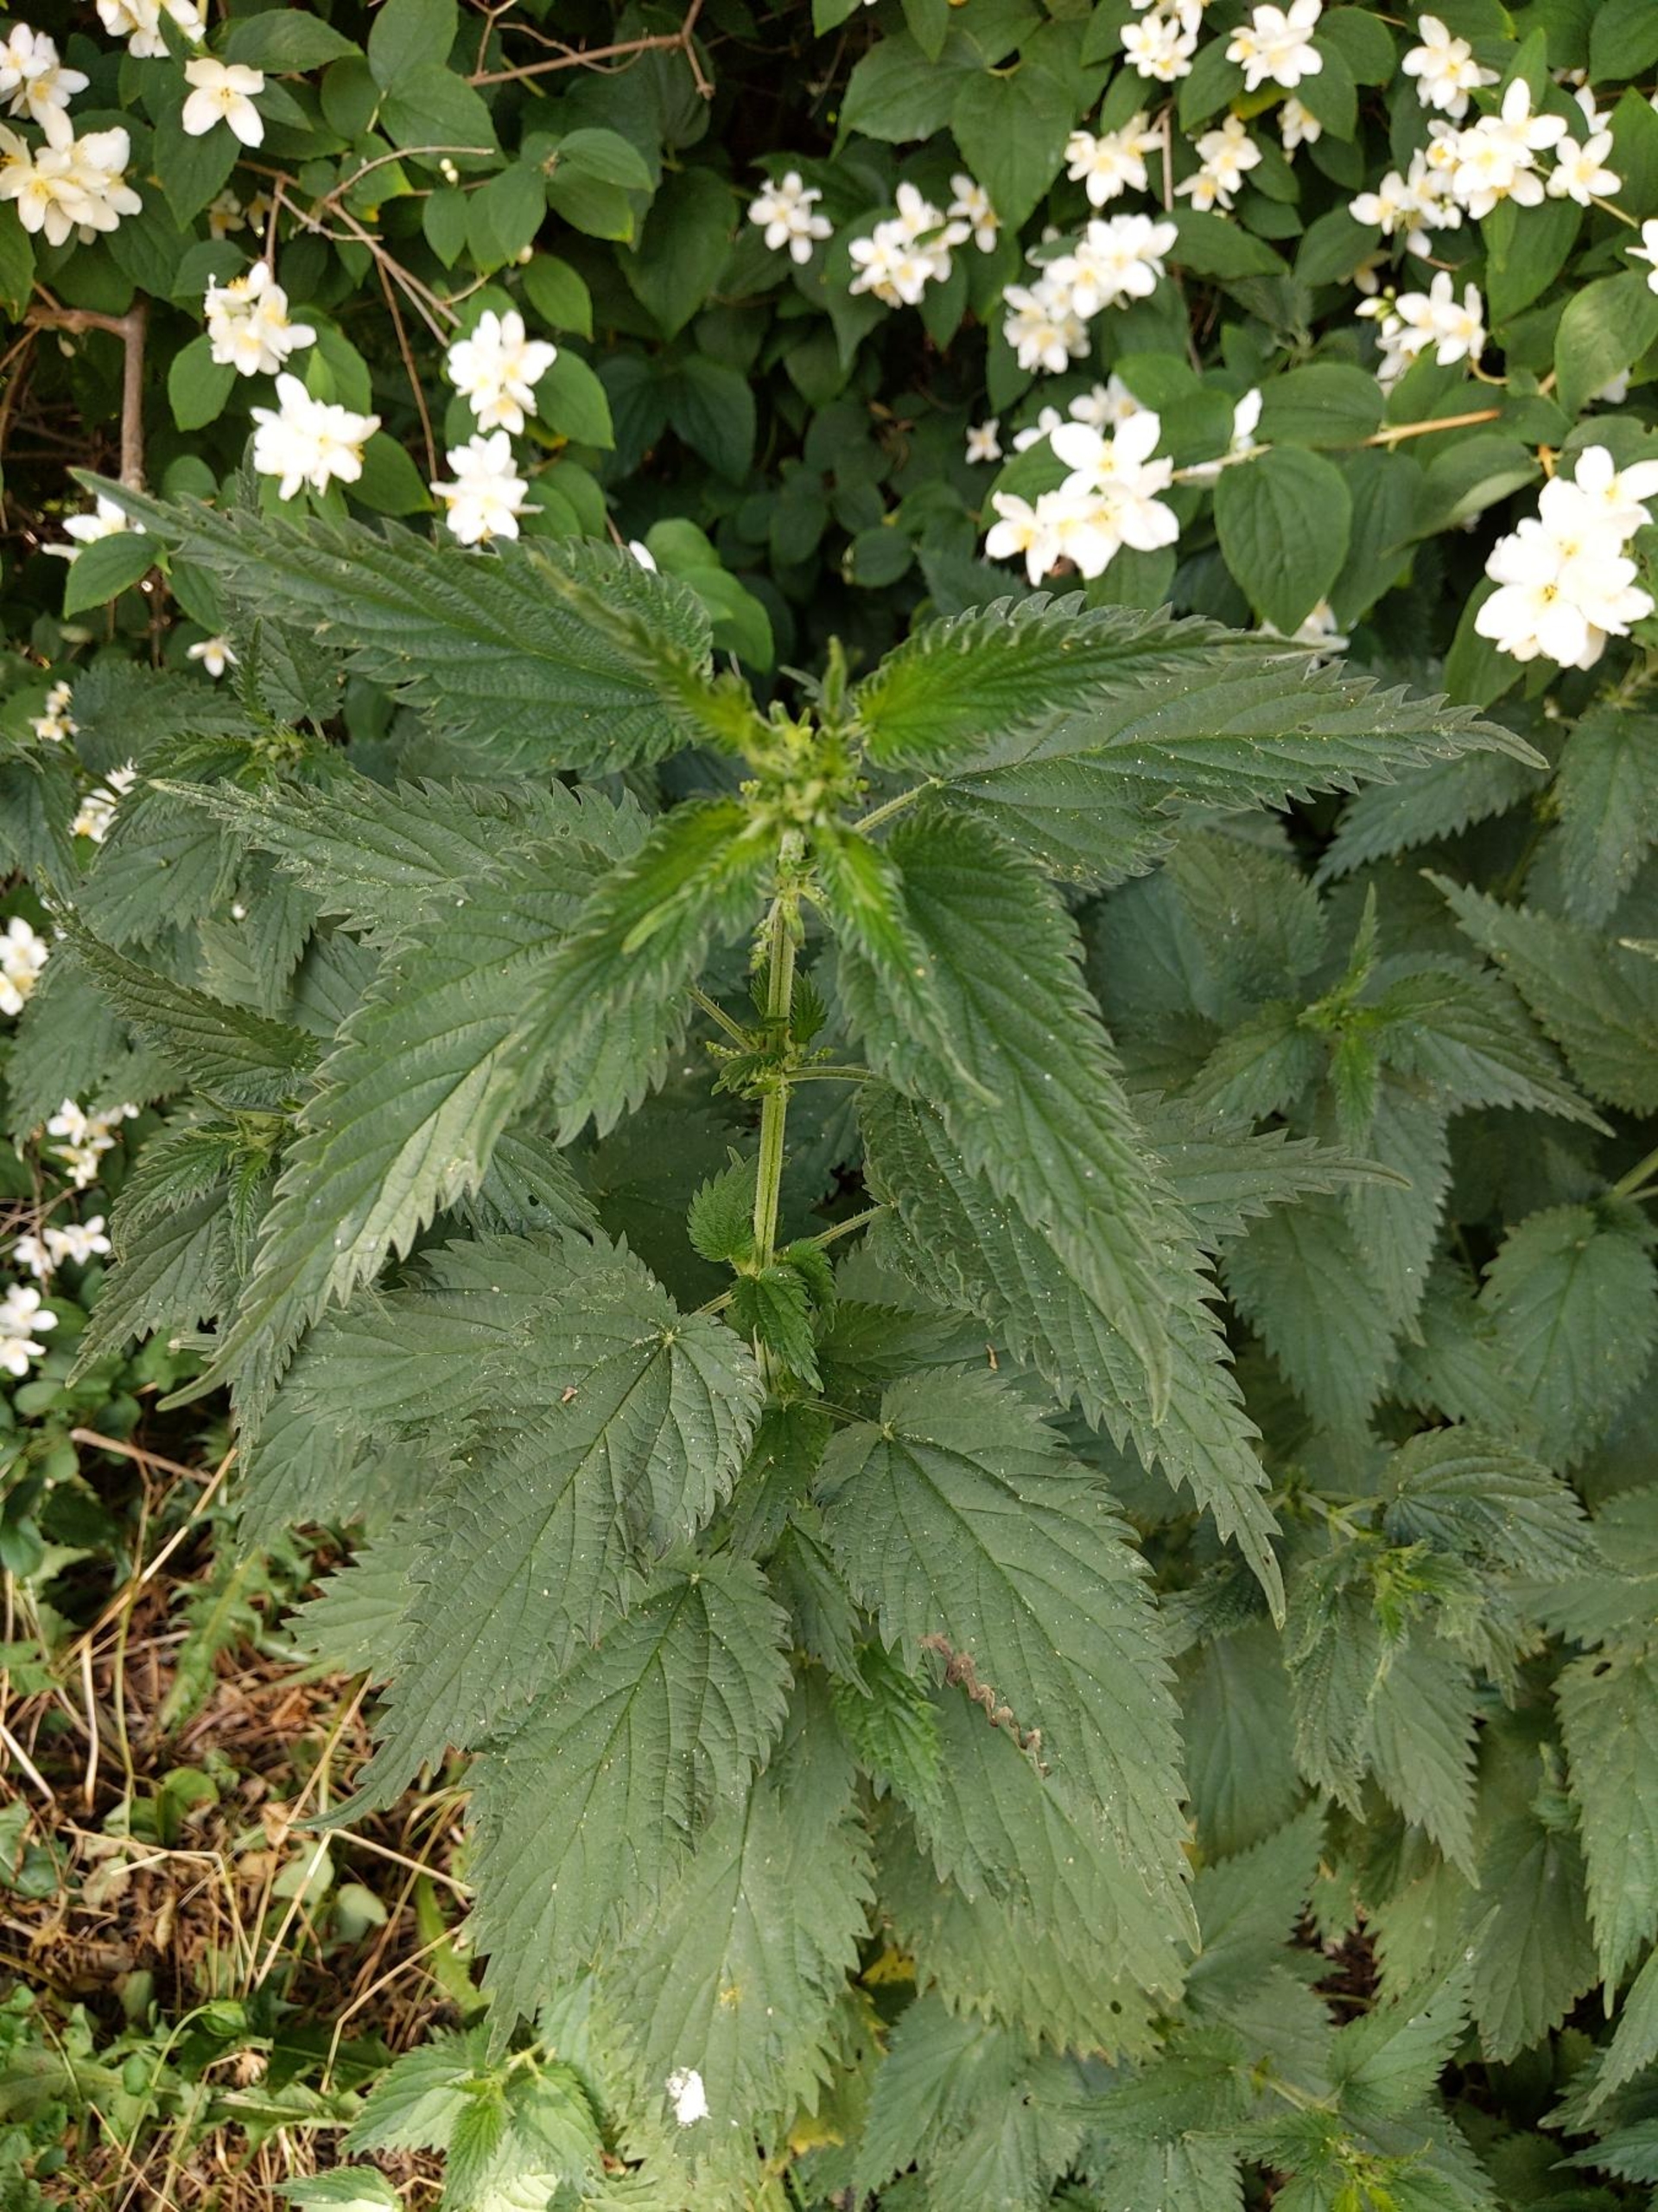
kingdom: Plantae
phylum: Tracheophyta
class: Magnoliopsida
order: Rosales
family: Urticaceae
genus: Urtica
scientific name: Urtica dioica
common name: Stor nælde
